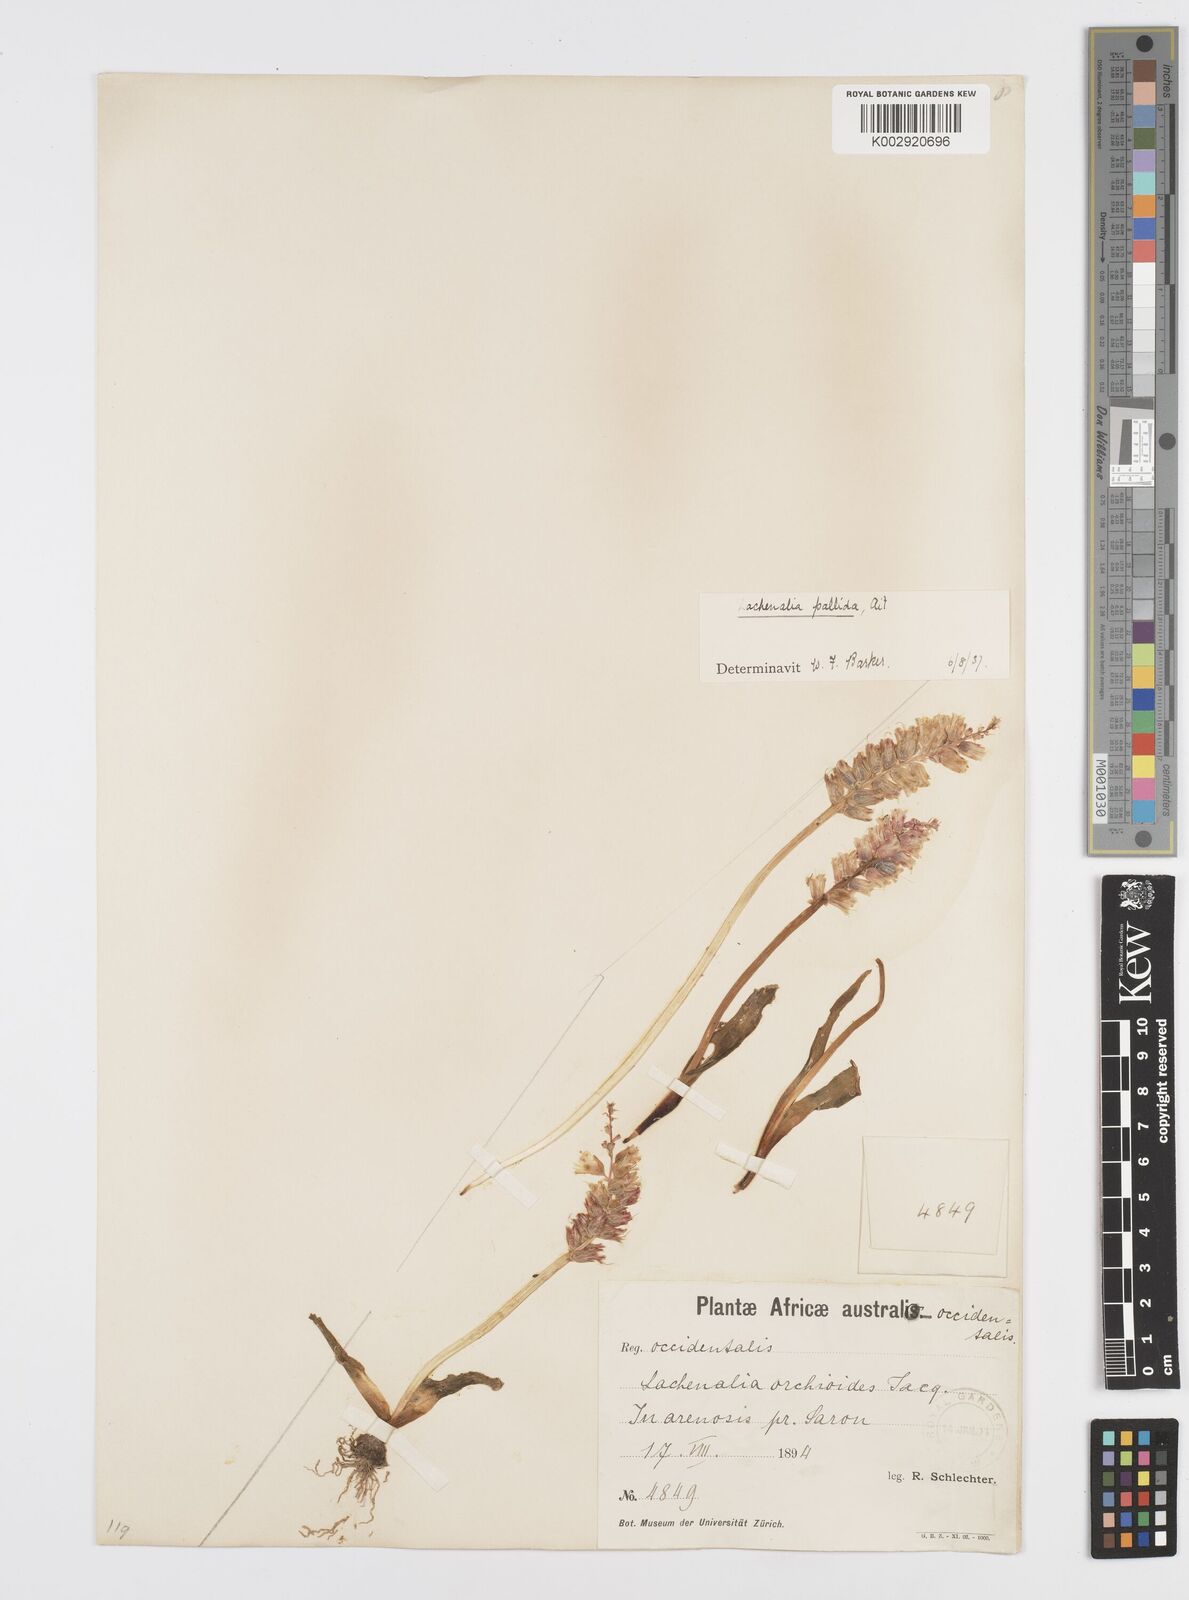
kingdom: Plantae
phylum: Tracheophyta
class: Liliopsida
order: Asparagales
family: Asparagaceae
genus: Lachenalia
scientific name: Lachenalia pallida
